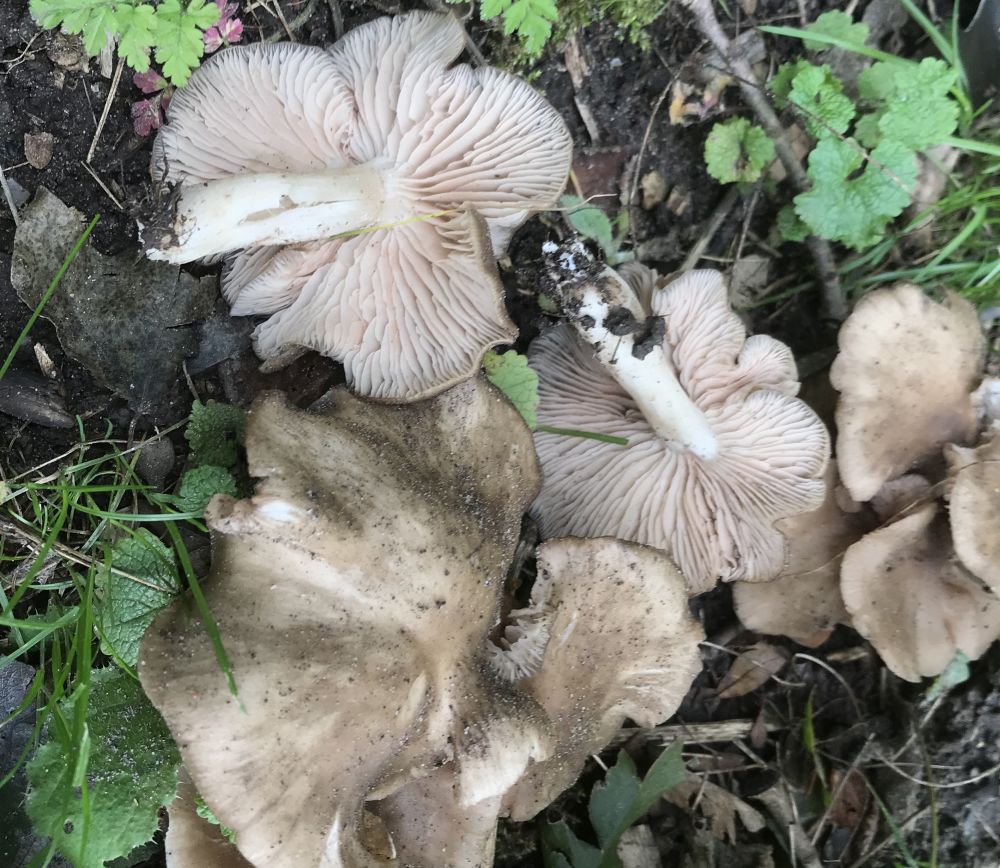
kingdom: Fungi
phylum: Basidiomycota
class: Agaricomycetes
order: Agaricales
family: Entolomataceae
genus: Entoloma
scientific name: Entoloma
